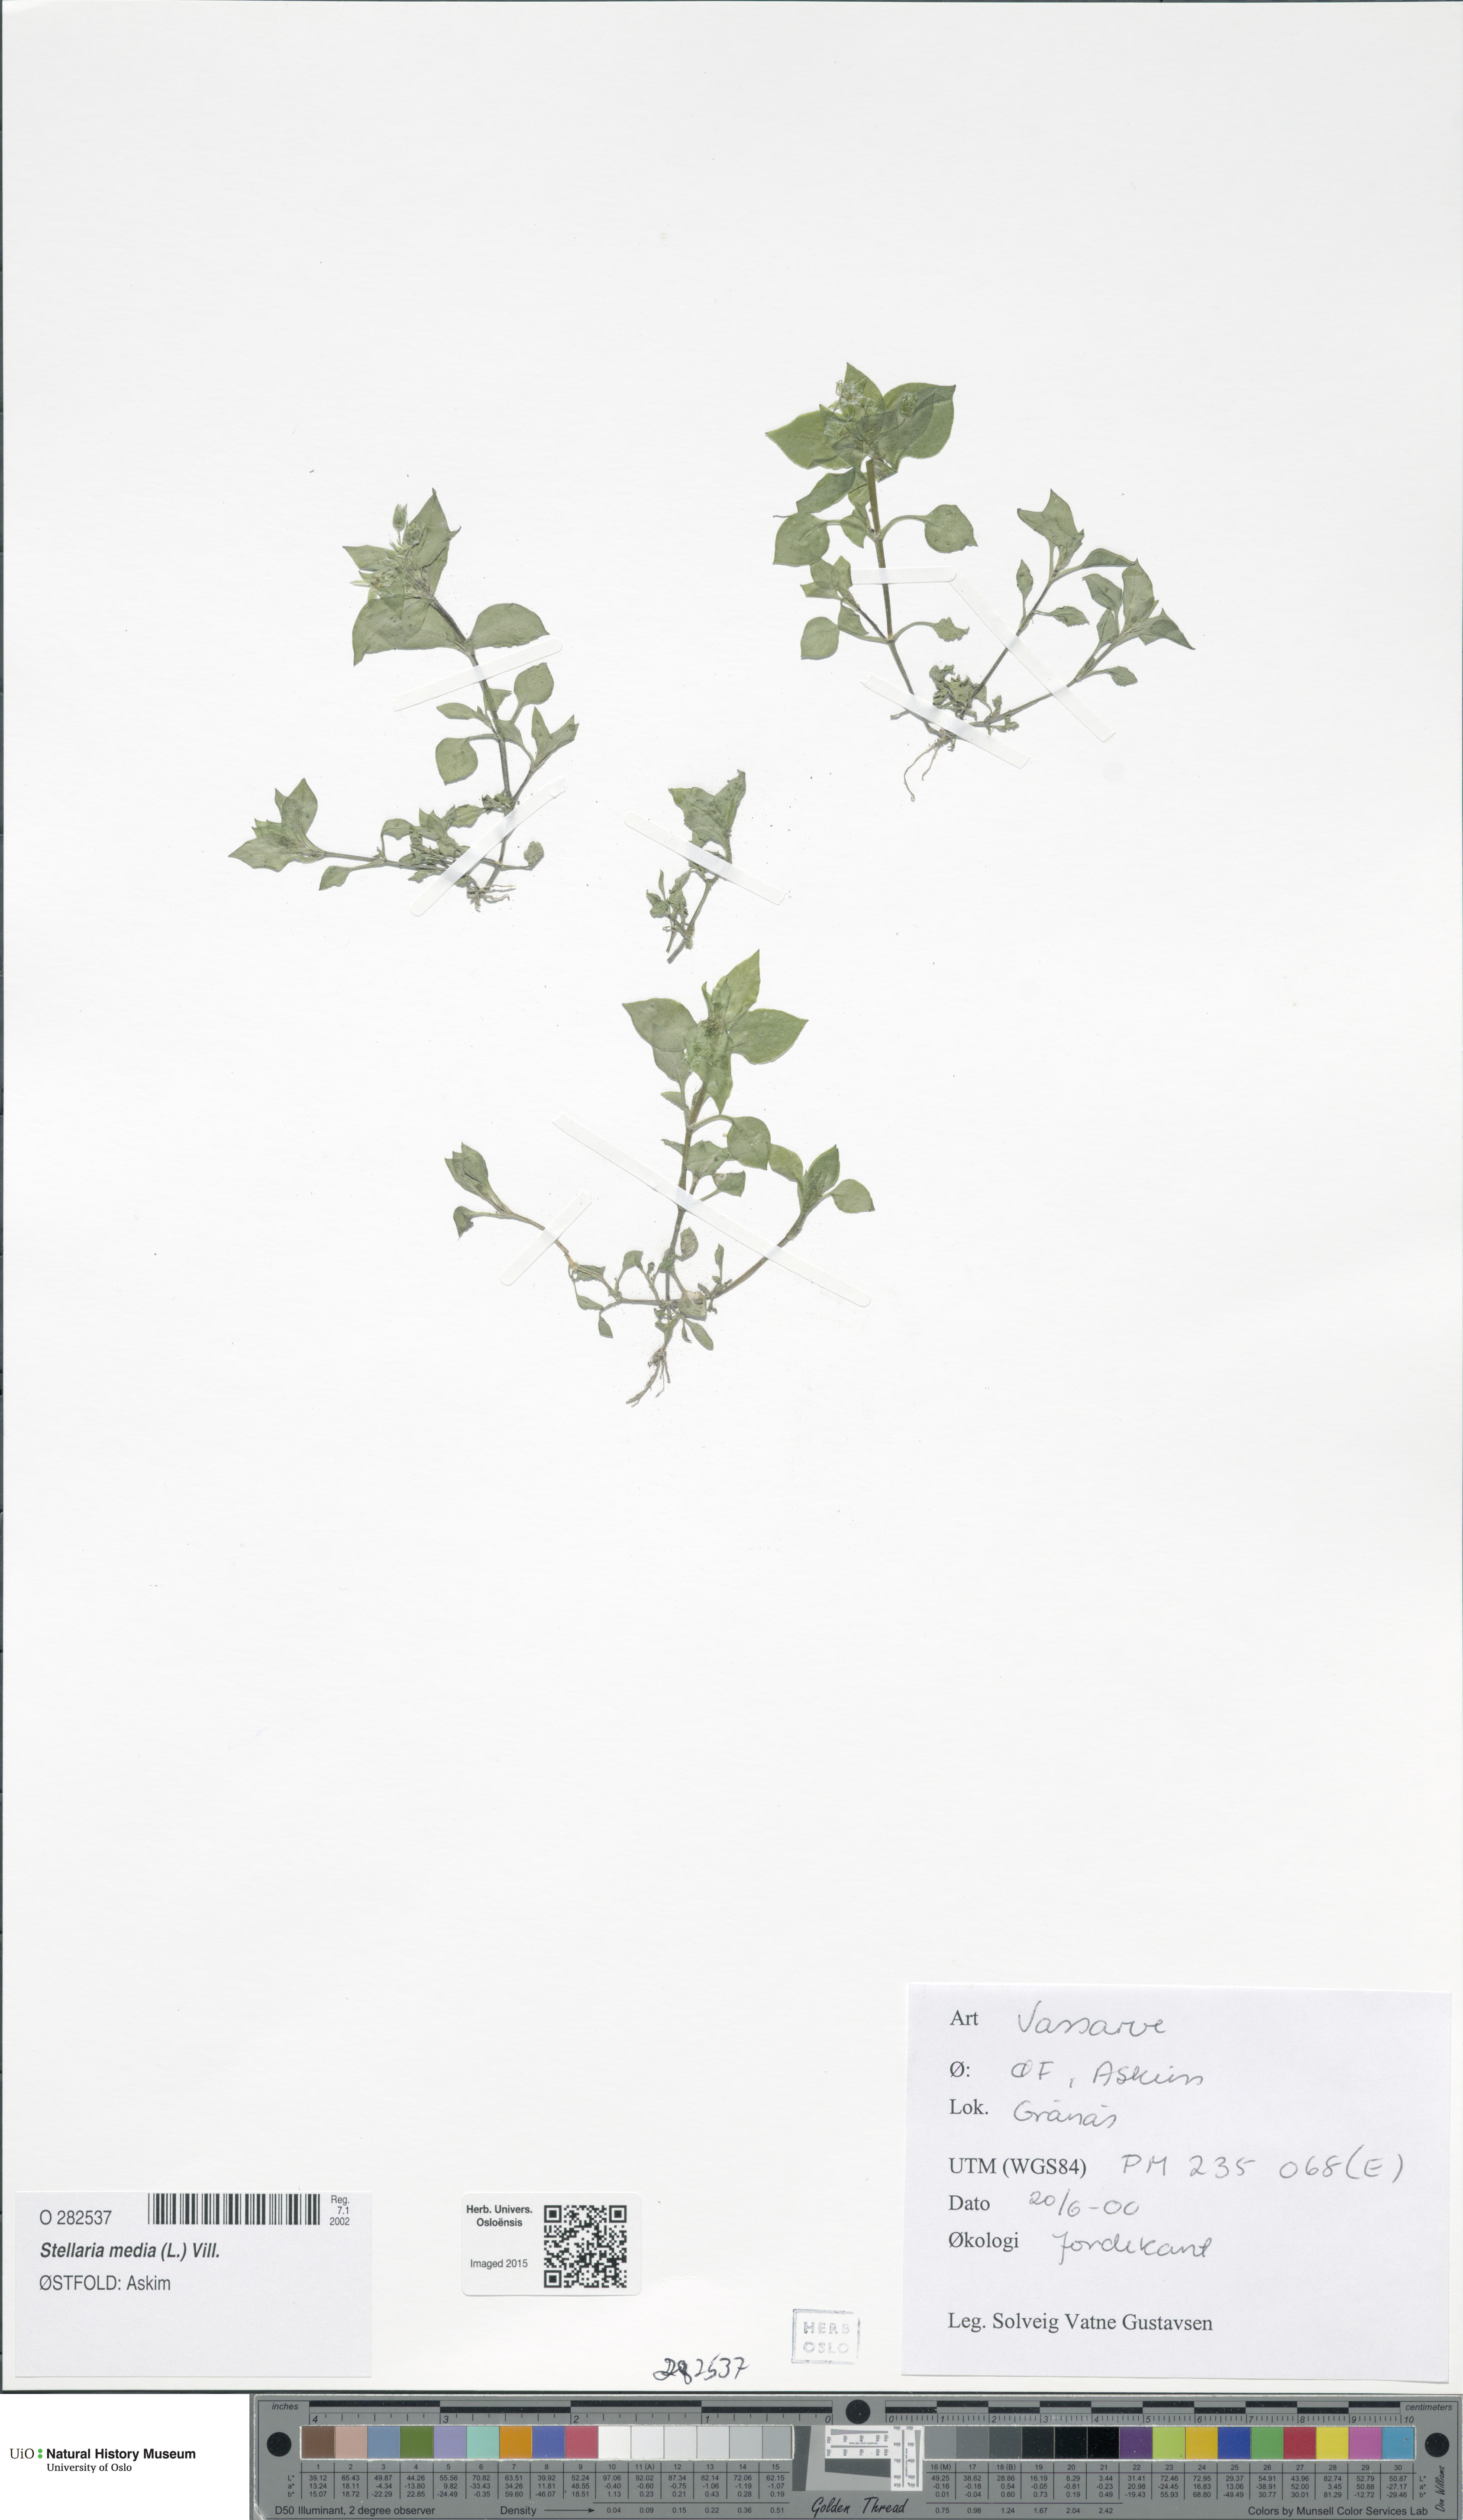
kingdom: Plantae
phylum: Tracheophyta
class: Magnoliopsida
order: Caryophyllales
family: Caryophyllaceae
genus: Stellaria
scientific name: Stellaria media
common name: Common chickweed
